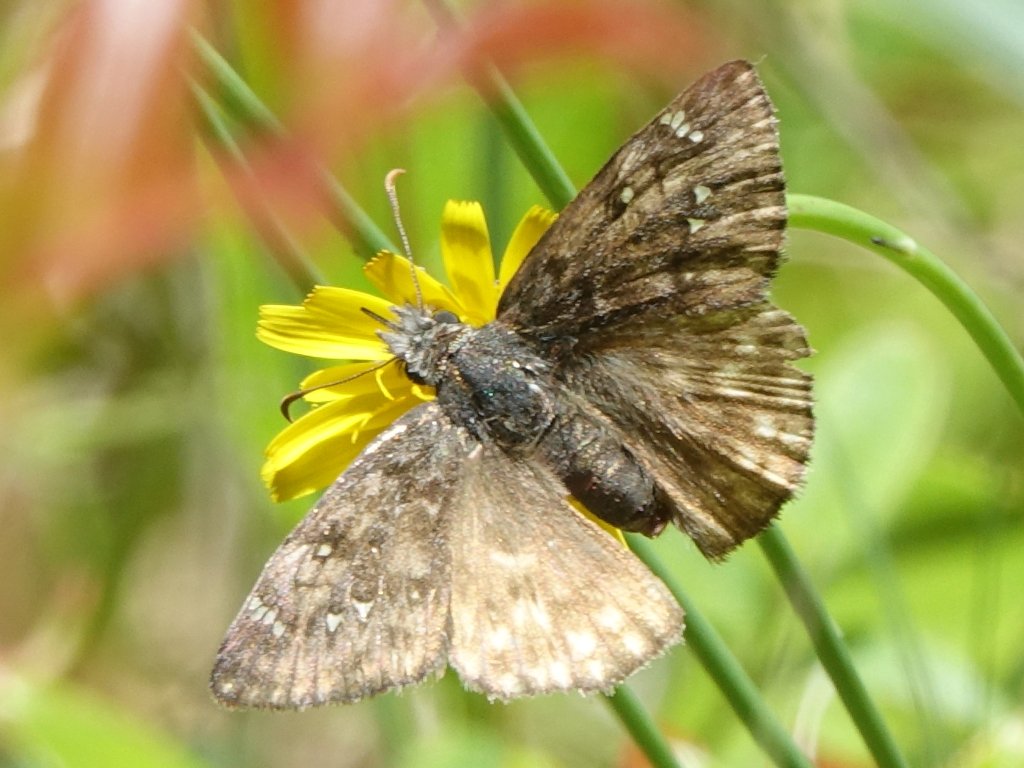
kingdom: Animalia
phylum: Arthropoda
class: Insecta
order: Lepidoptera
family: Hesperiidae
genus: Erynnis
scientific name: Erynnis propertius
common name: Propertius Duskywing
